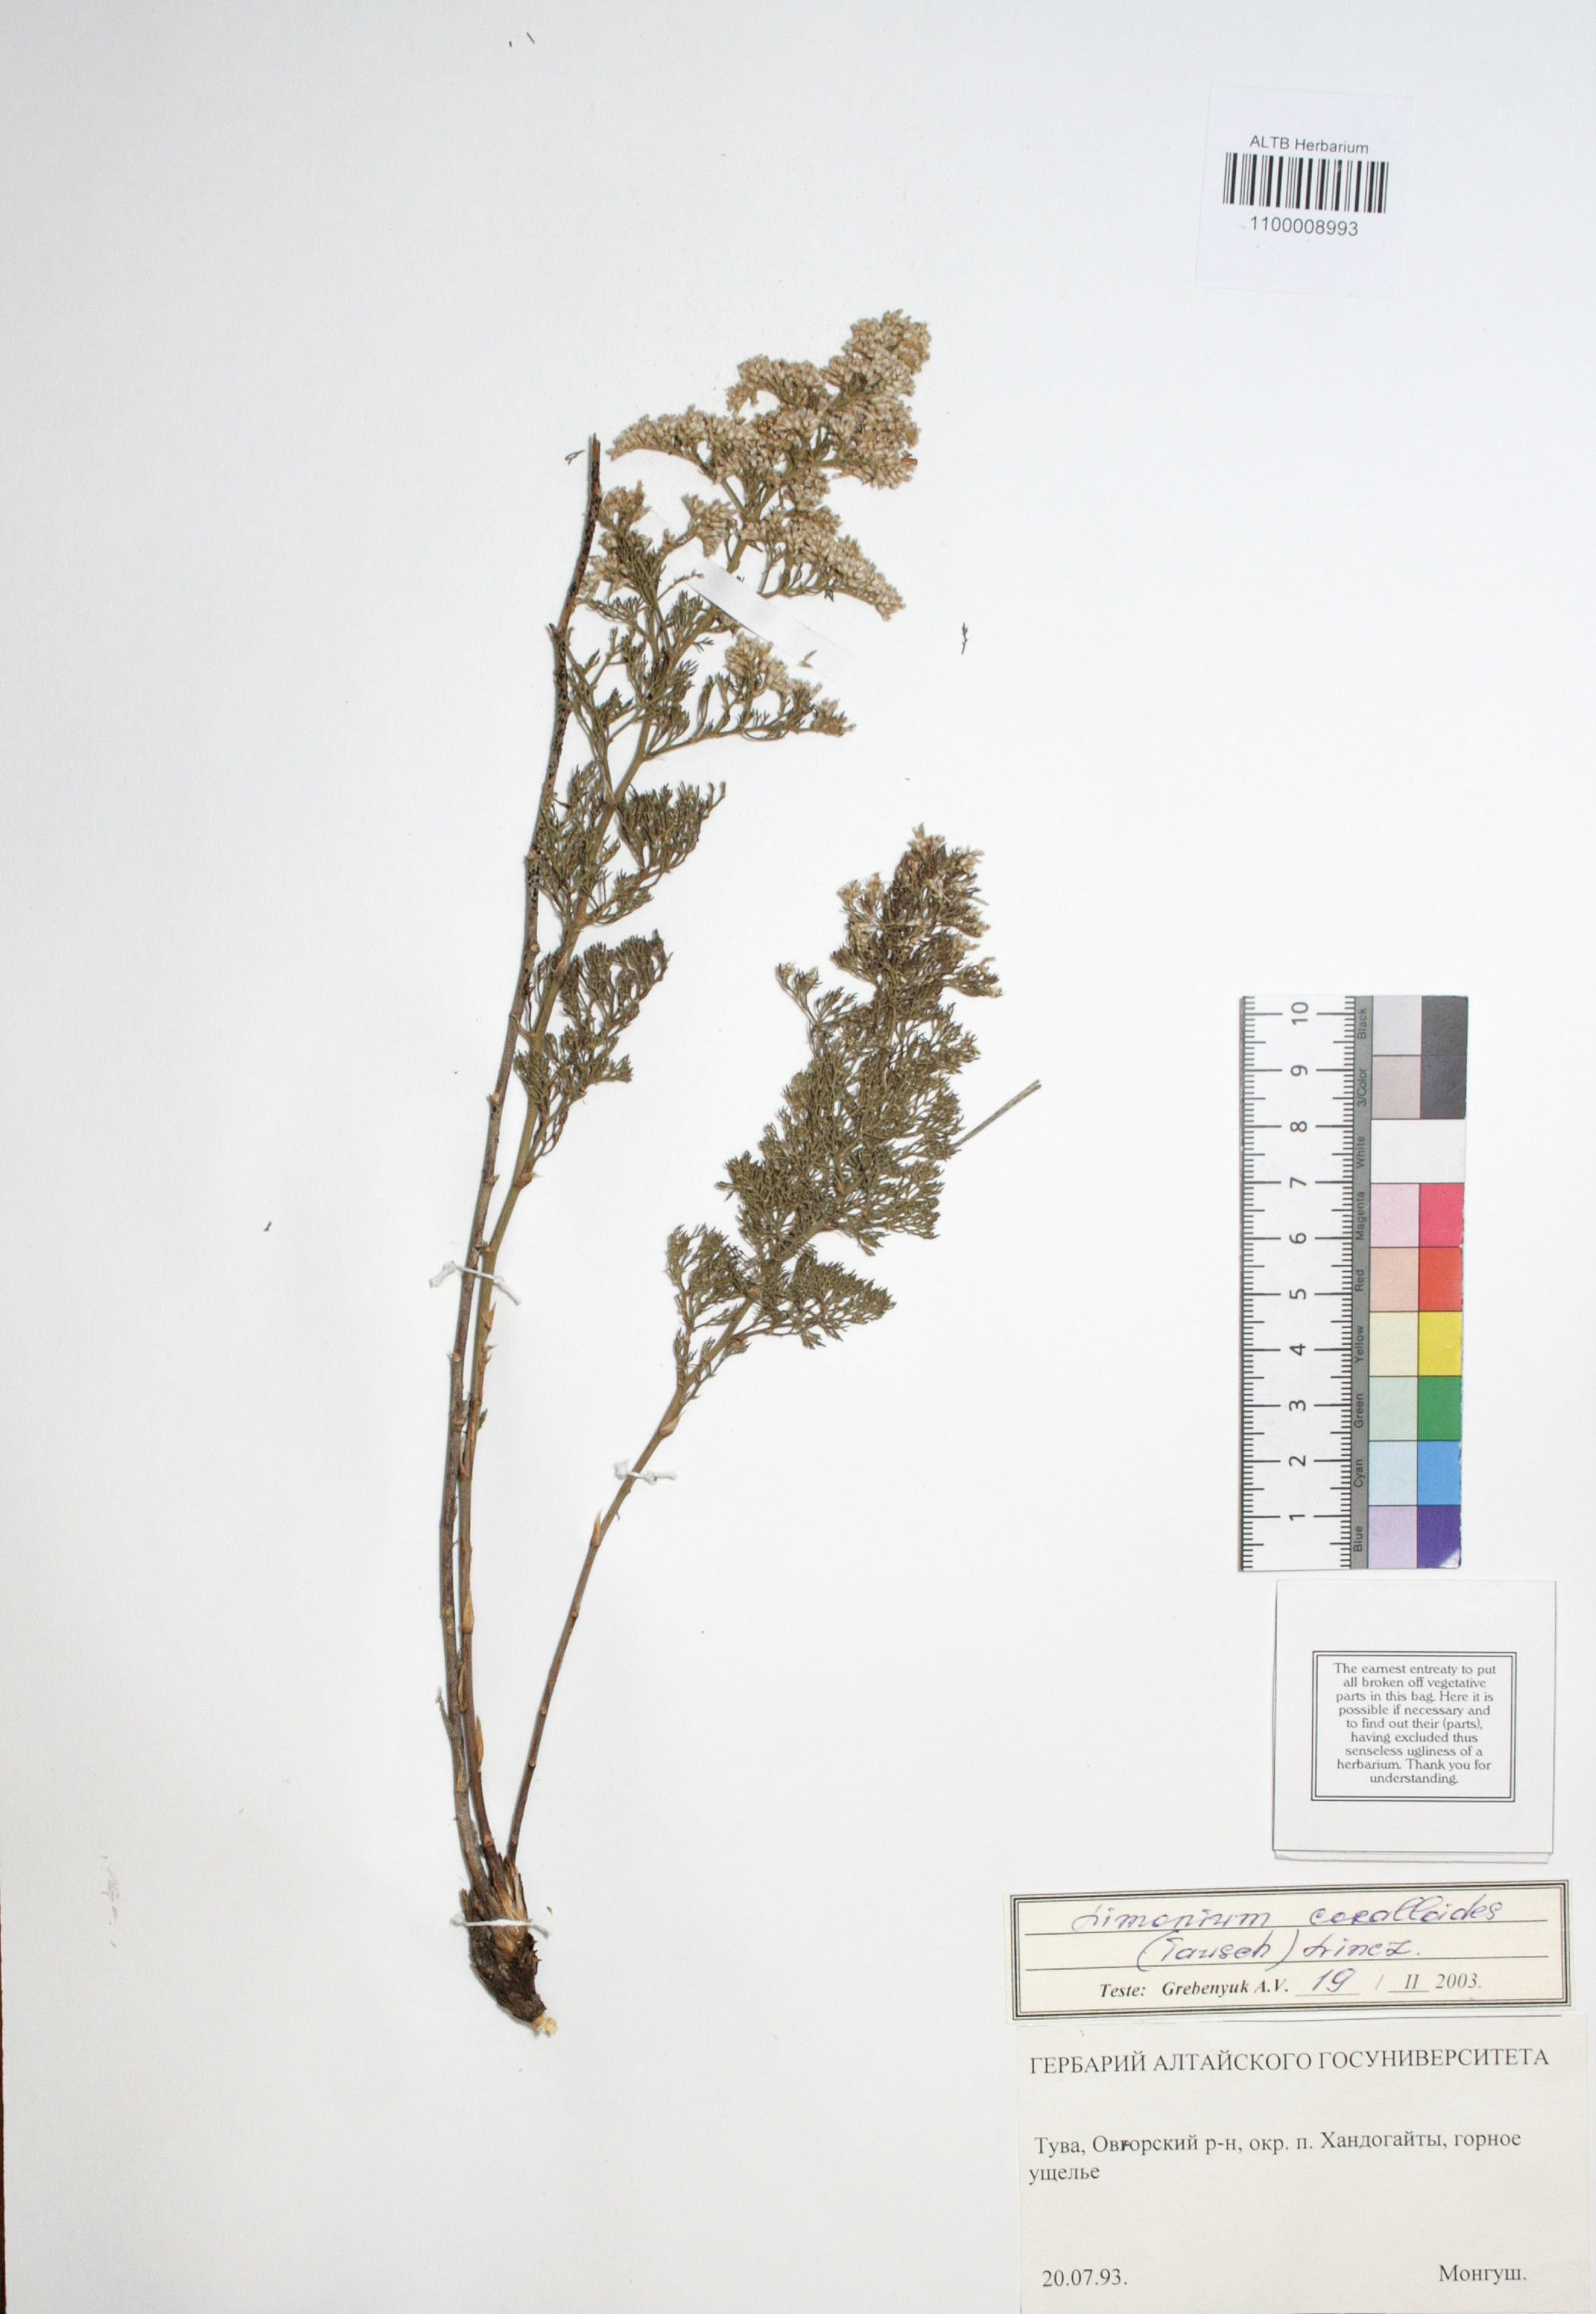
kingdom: Plantae
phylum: Tracheophyta
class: Magnoliopsida
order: Caryophyllales
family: Plumbaginaceae
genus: Limonium
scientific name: Limonium coralloides
